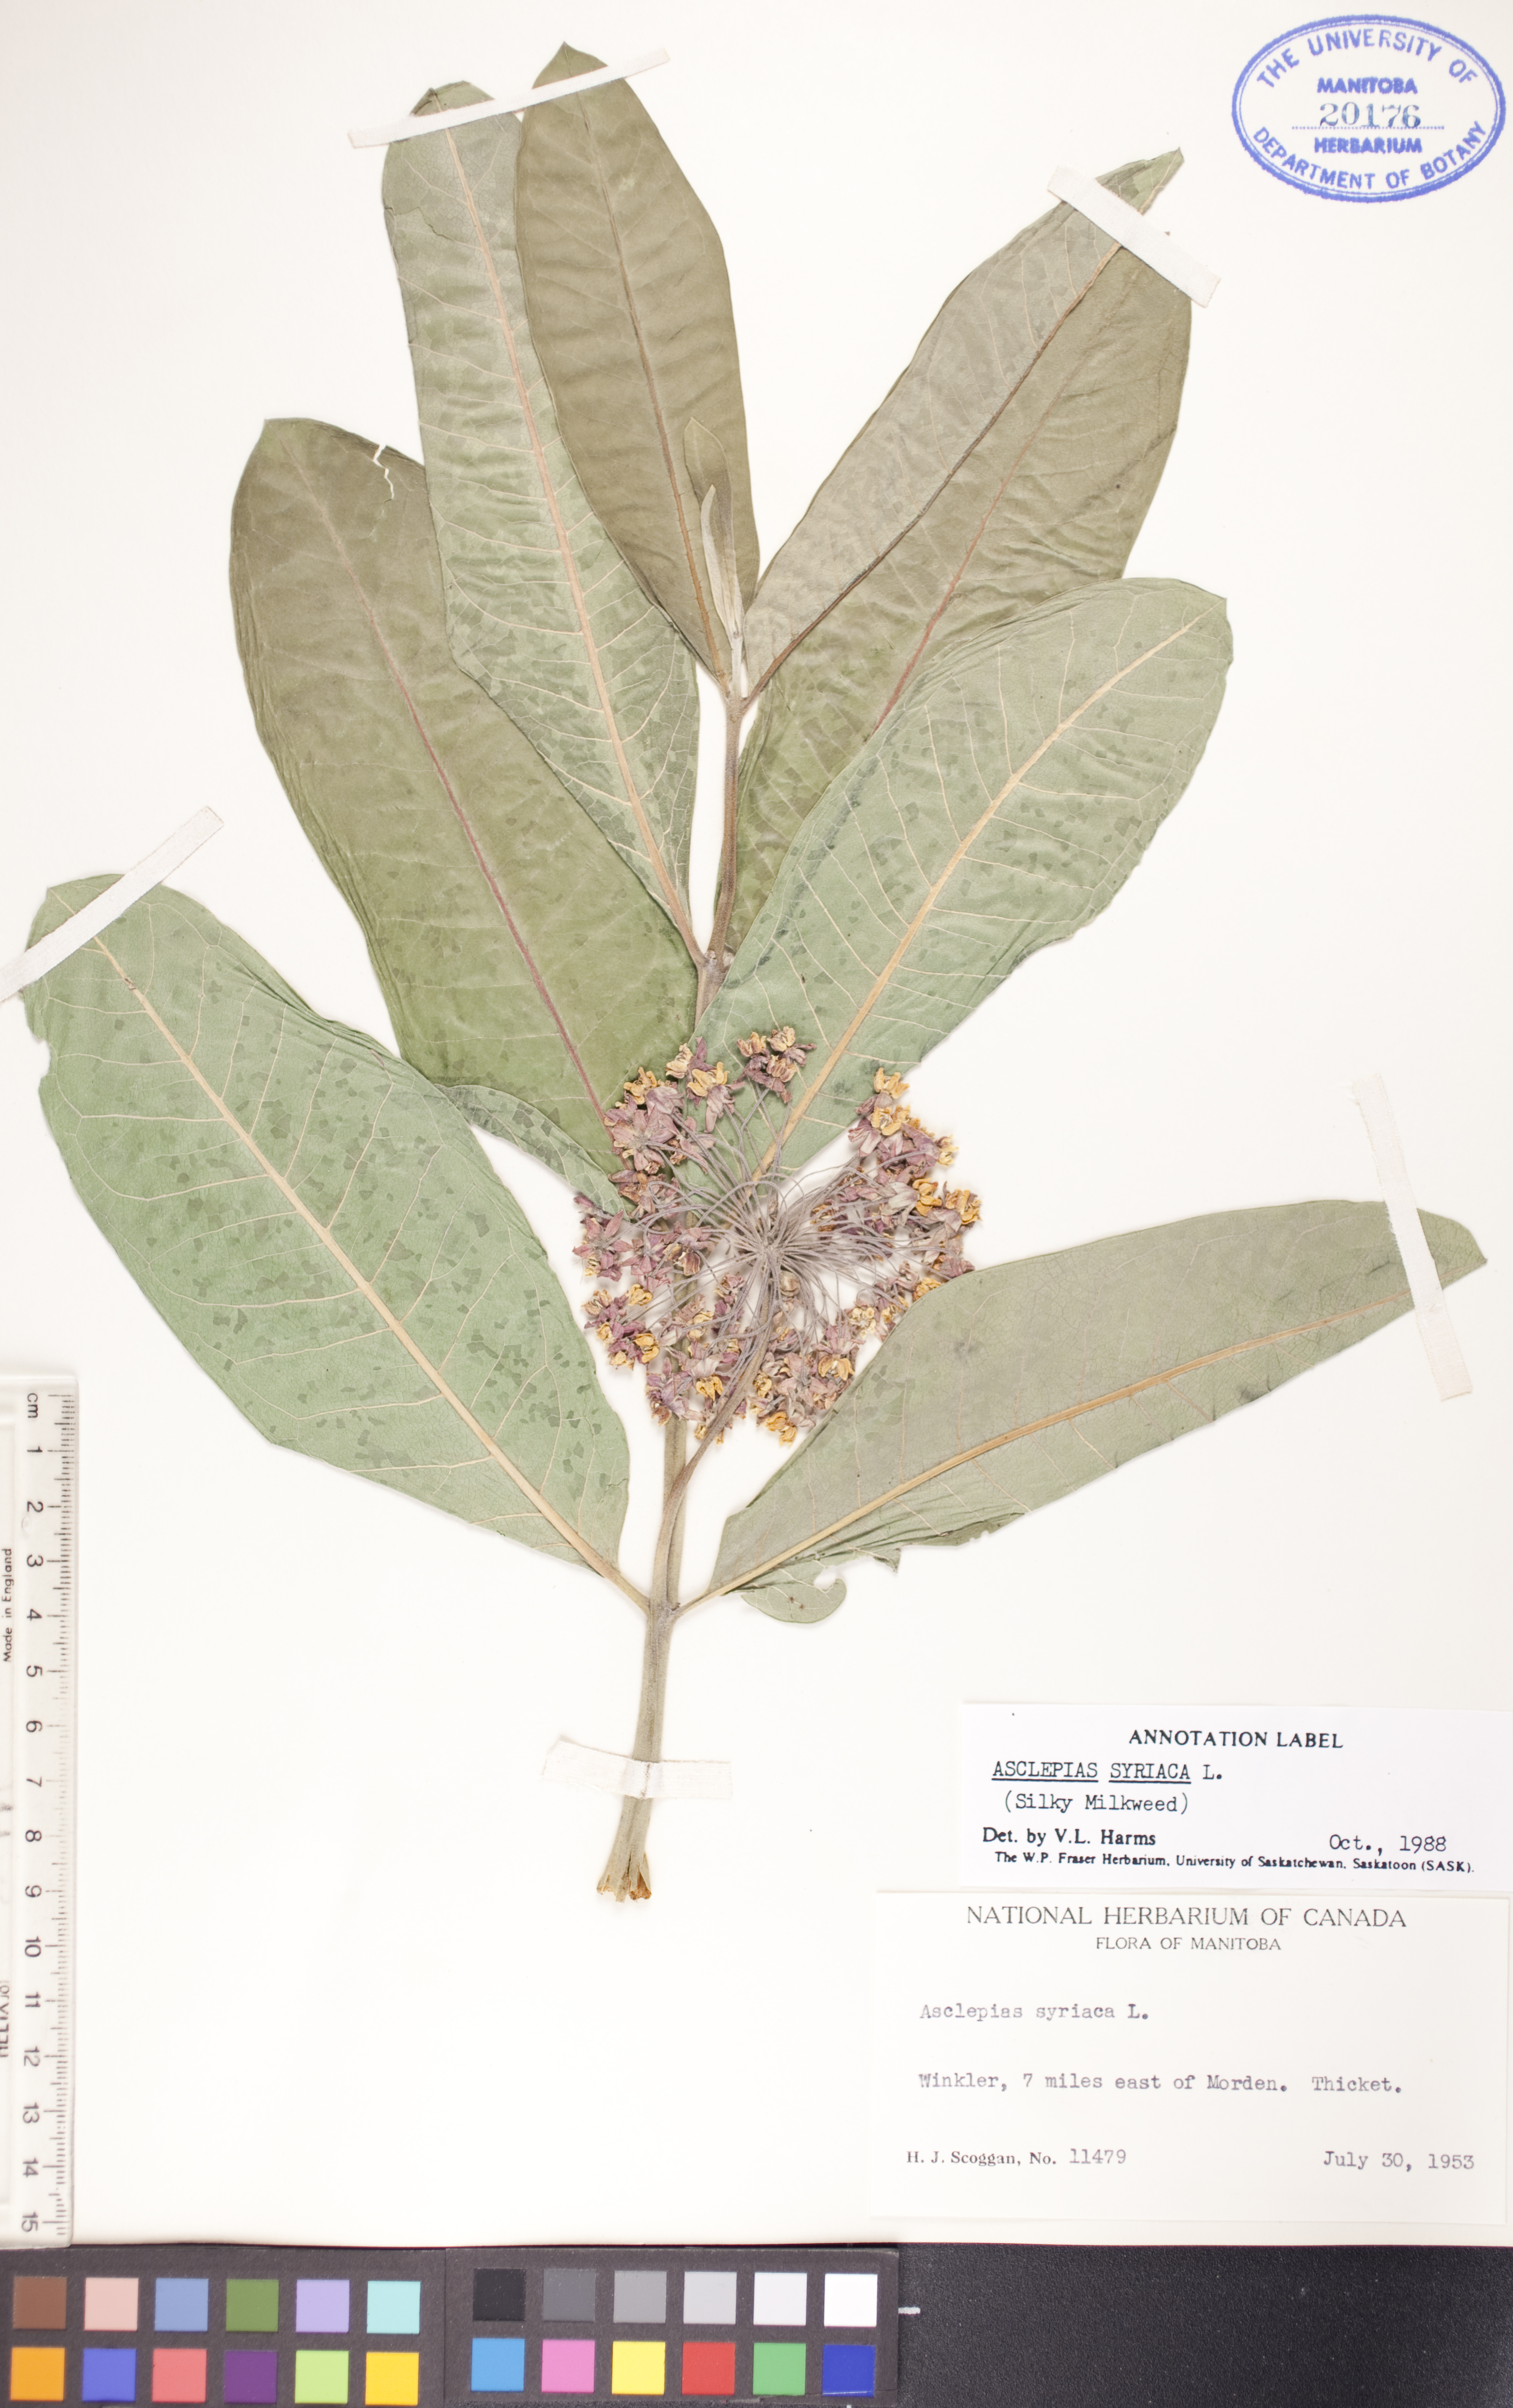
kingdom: Plantae
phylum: Tracheophyta
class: Magnoliopsida
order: Gentianales
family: Apocynaceae
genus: Asclepias
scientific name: Asclepias syriaca
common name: Common milkweed
